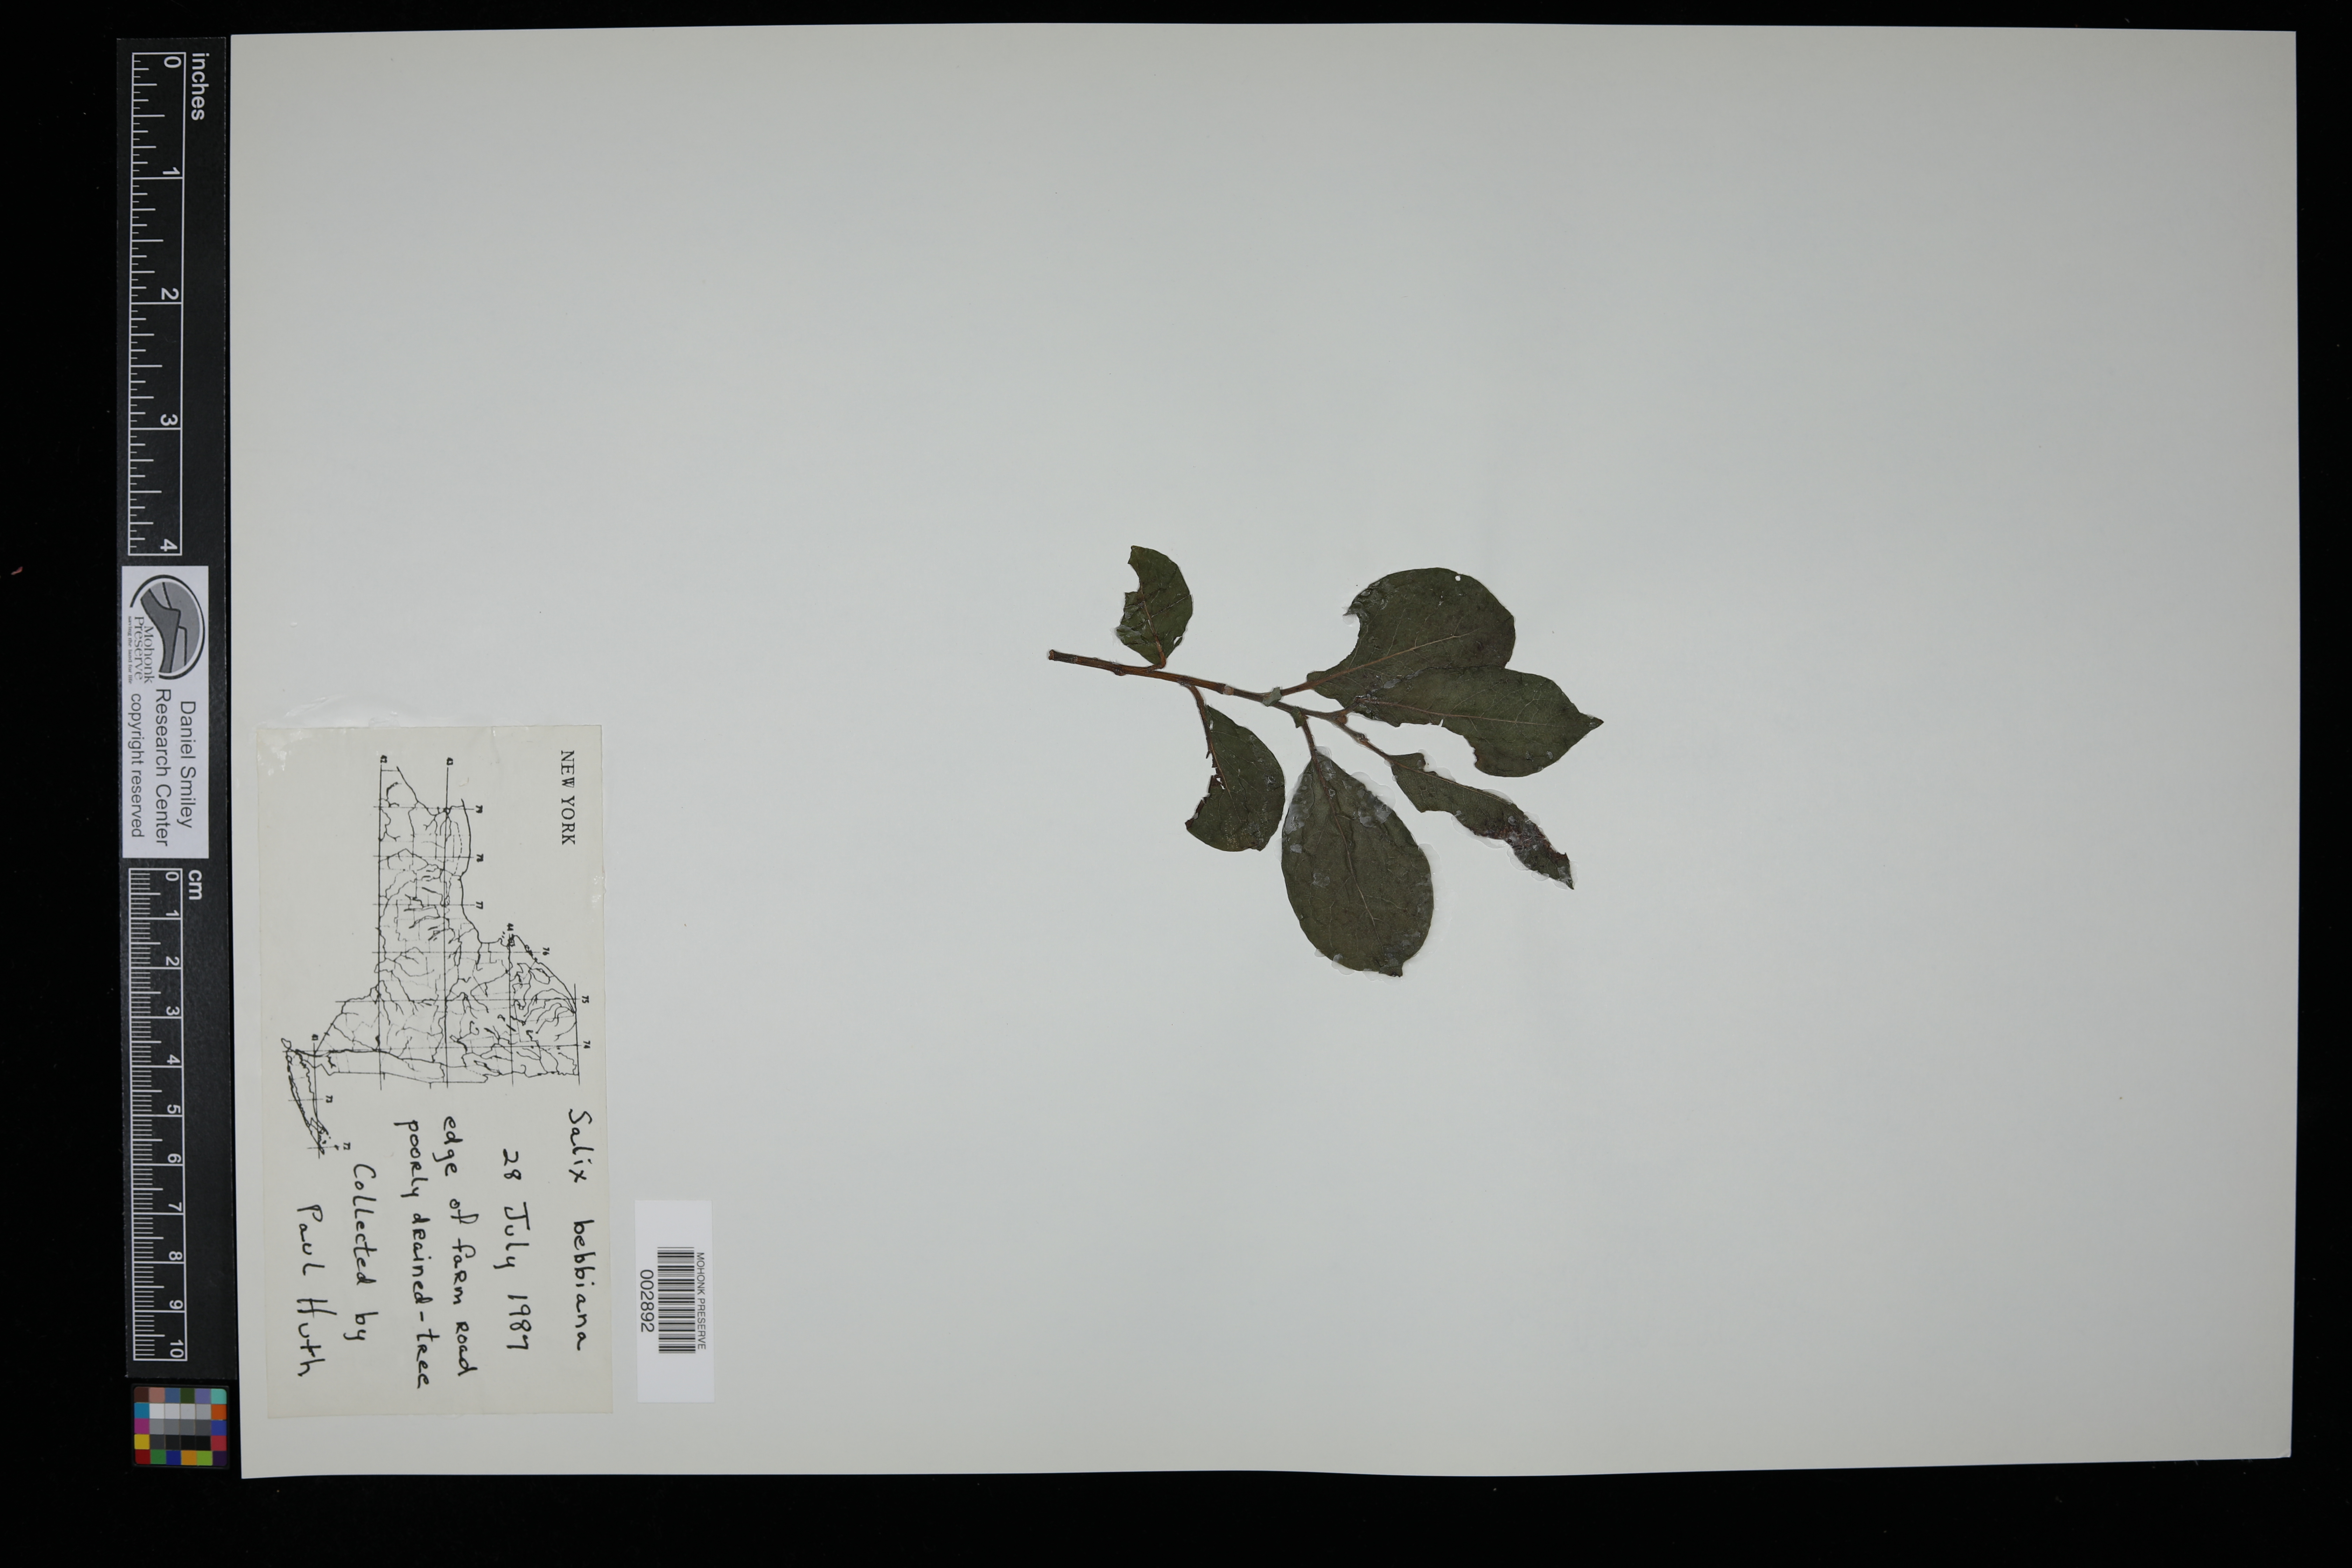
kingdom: Plantae
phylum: Tracheophyta
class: Magnoliopsida
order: Malpighiales
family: Salicaceae
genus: Salix
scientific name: Salix bebbiana
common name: Bebb's willow
